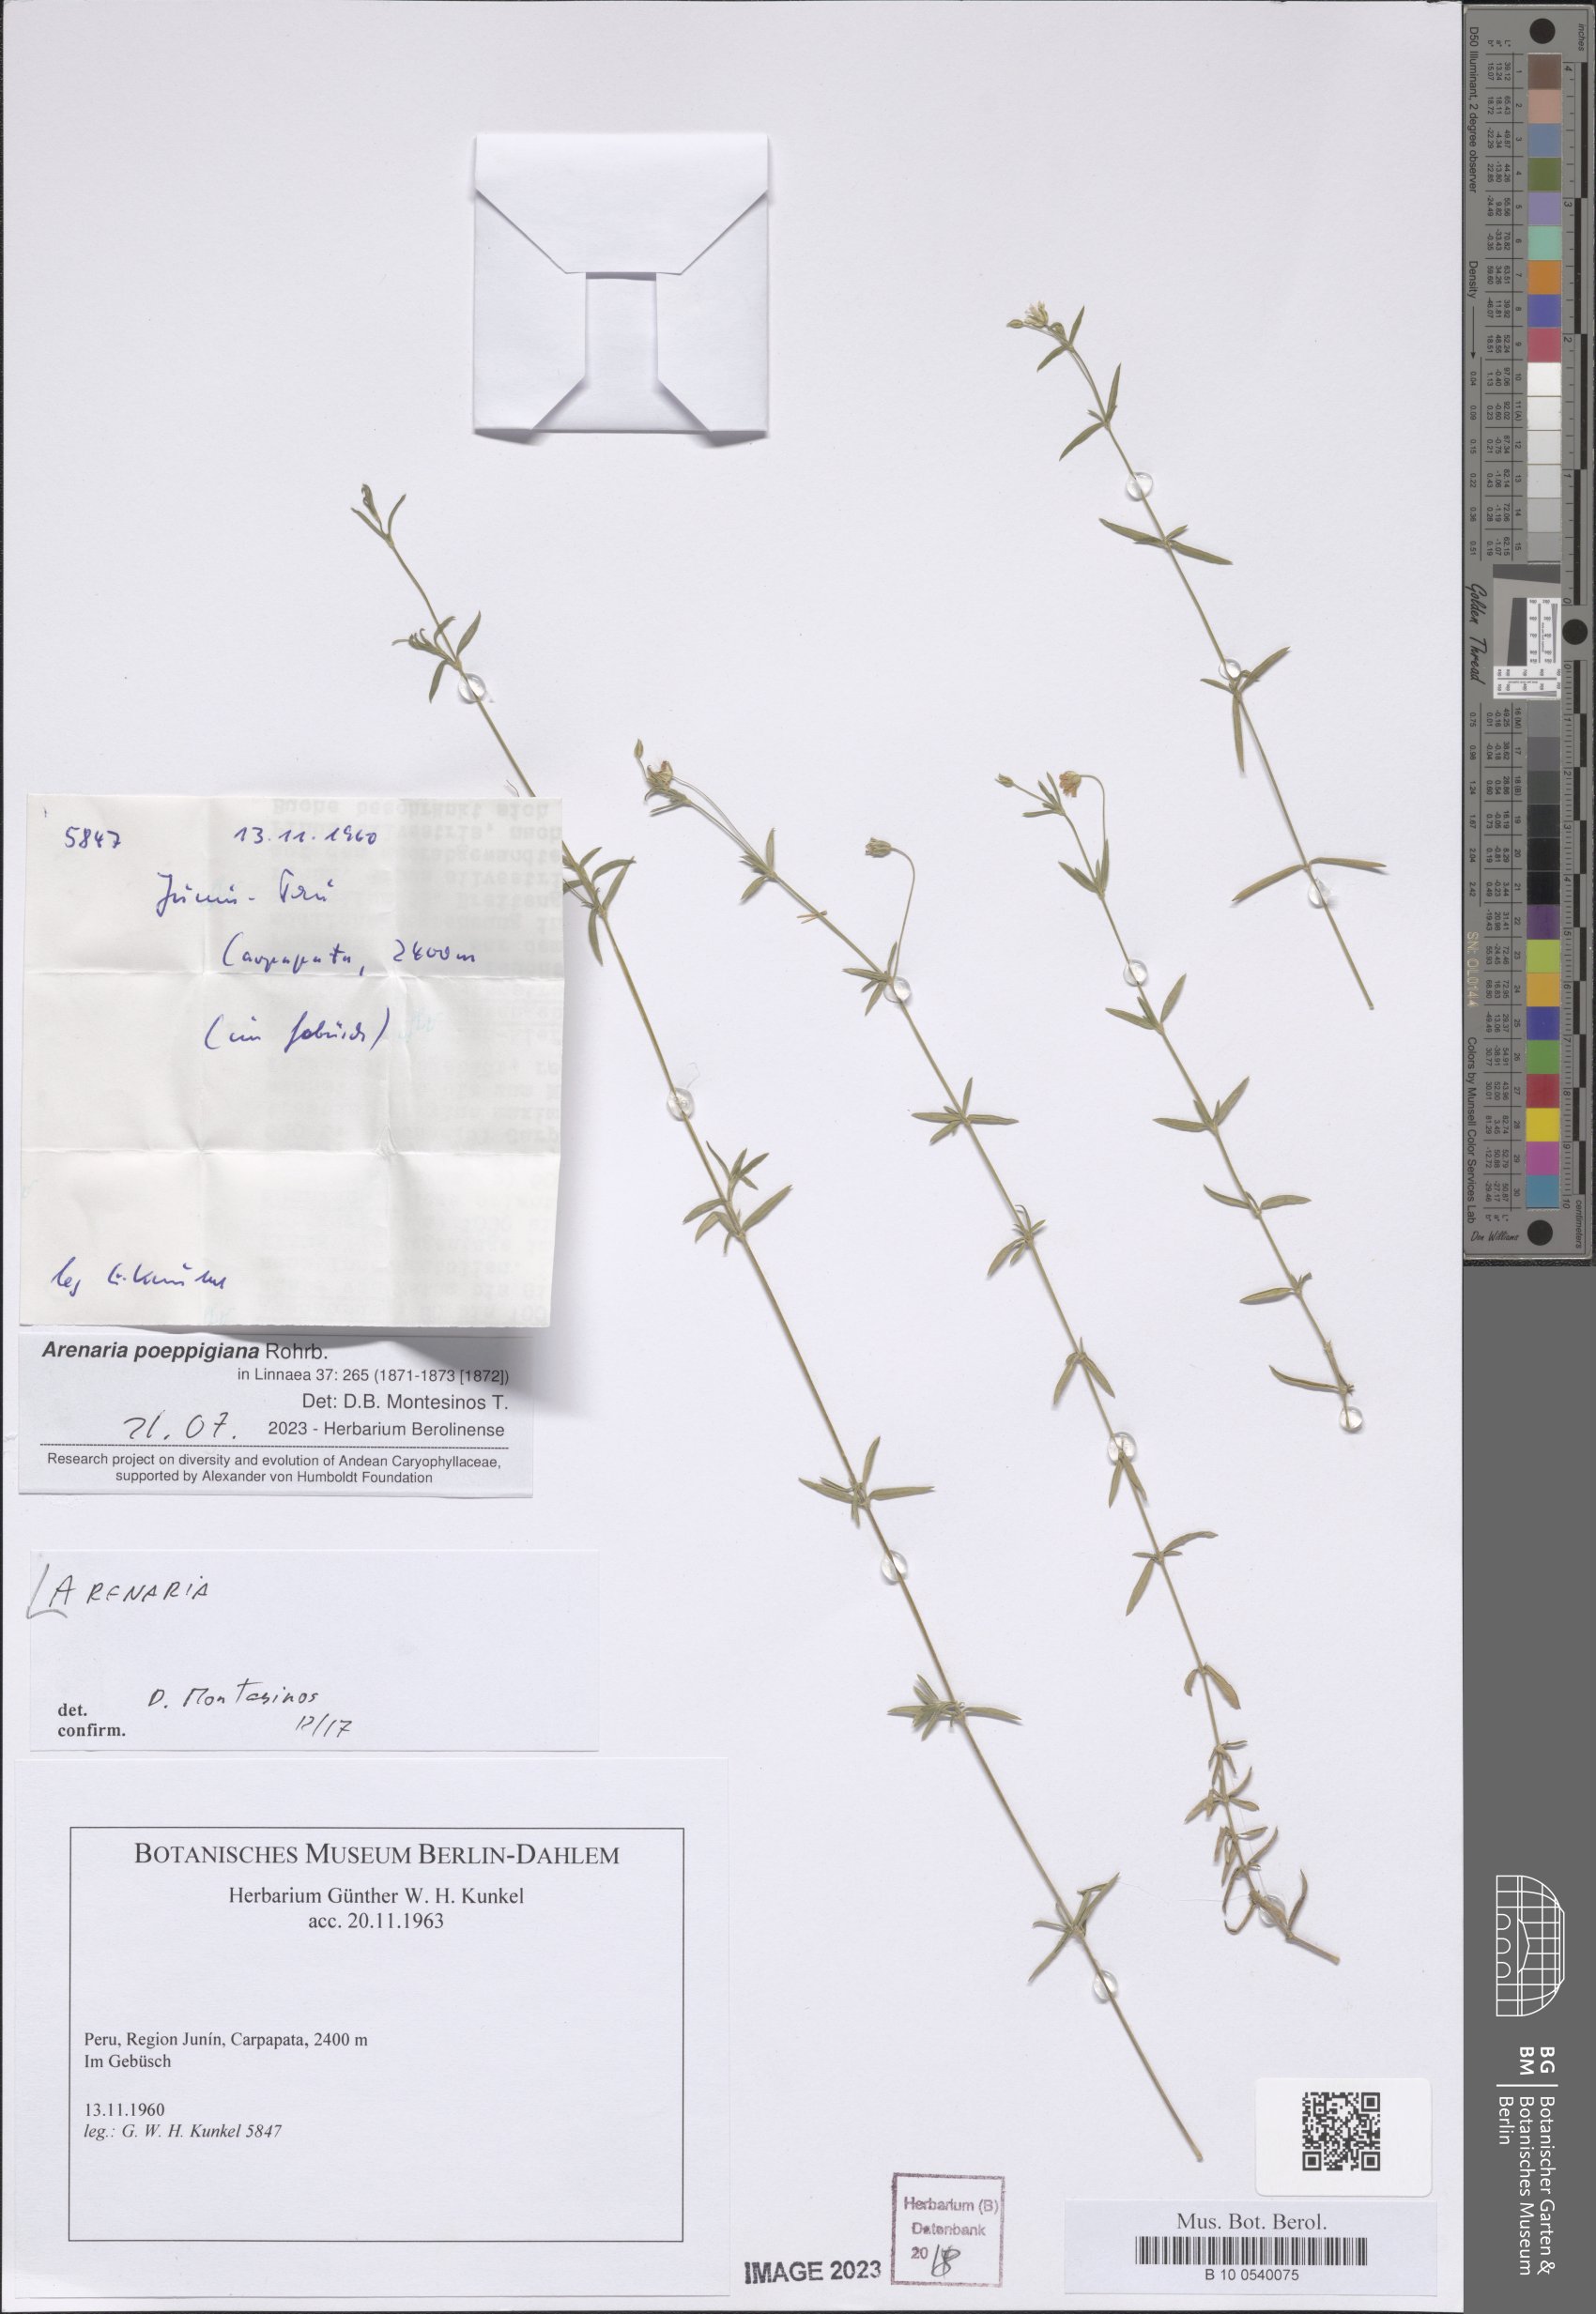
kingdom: Plantae
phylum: Tracheophyta
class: Magnoliopsida
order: Caryophyllales
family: Caryophyllaceae
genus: Arenaria
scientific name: Arenaria
